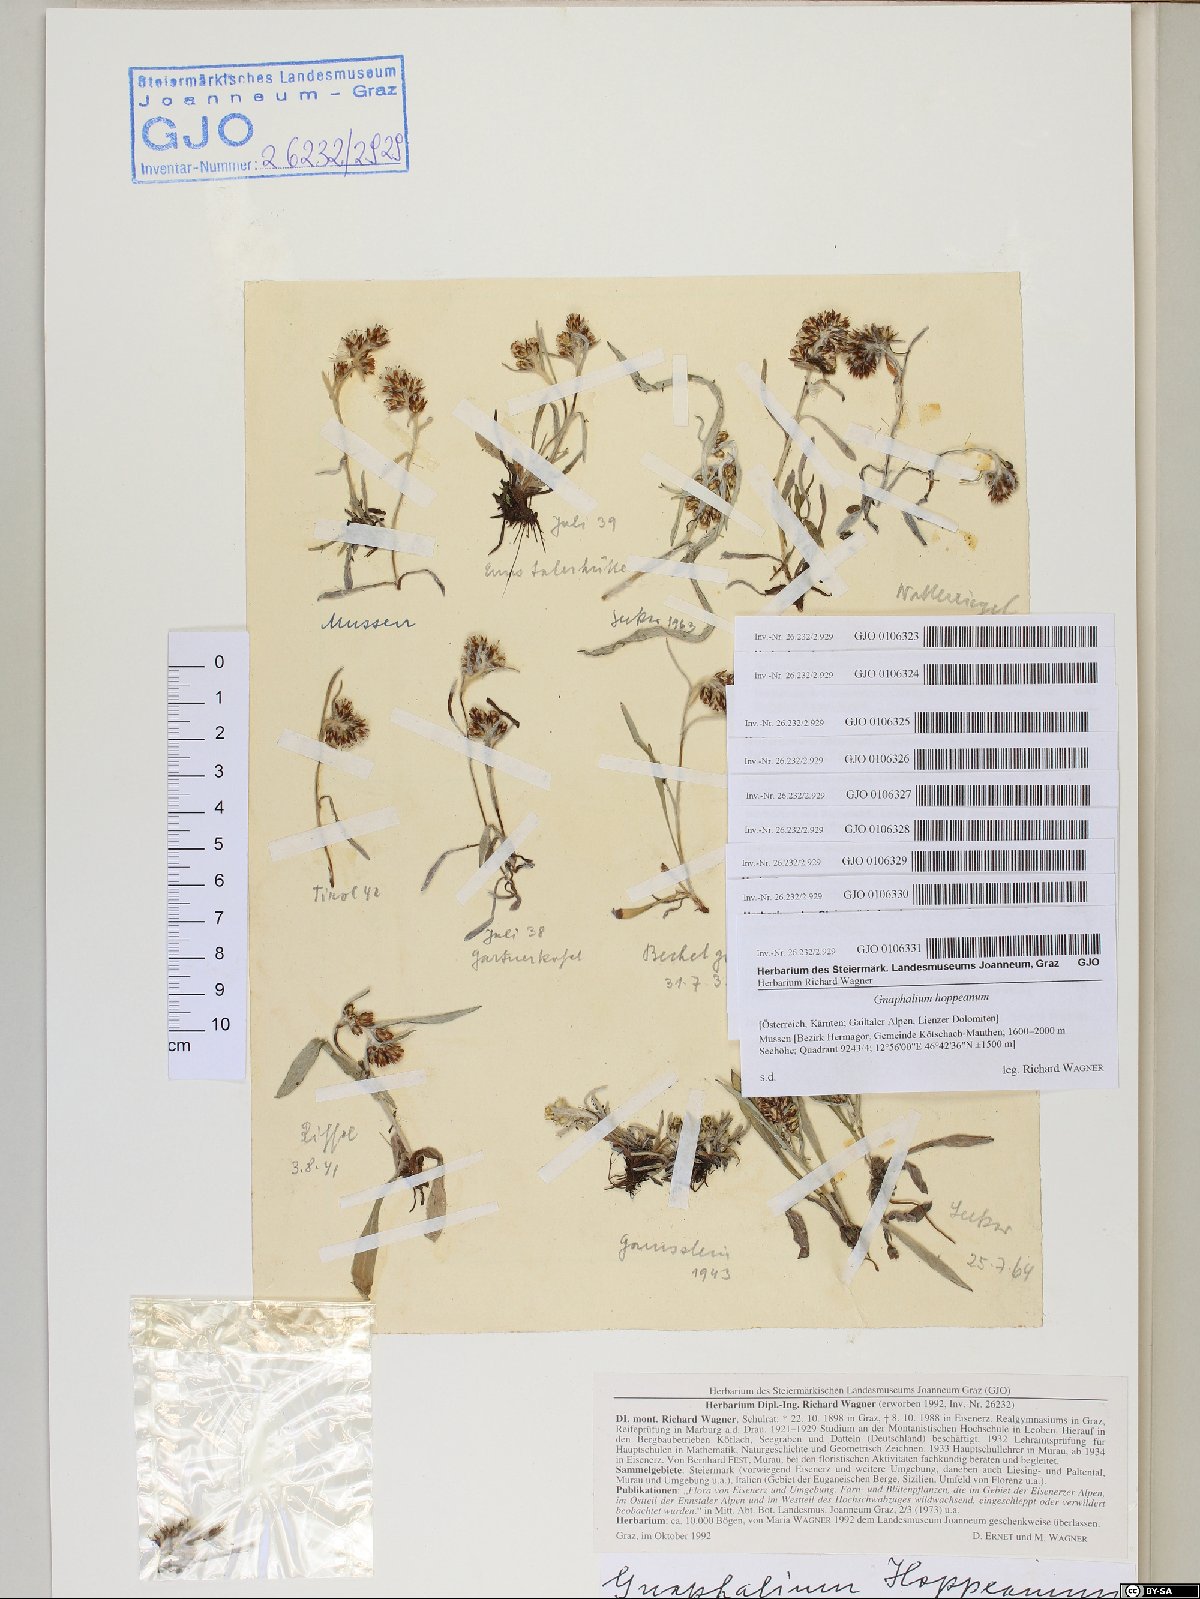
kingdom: Plantae
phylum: Tracheophyta
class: Magnoliopsida
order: Asterales
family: Asteraceae
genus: Omalotheca
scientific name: Omalotheca hoppeana
